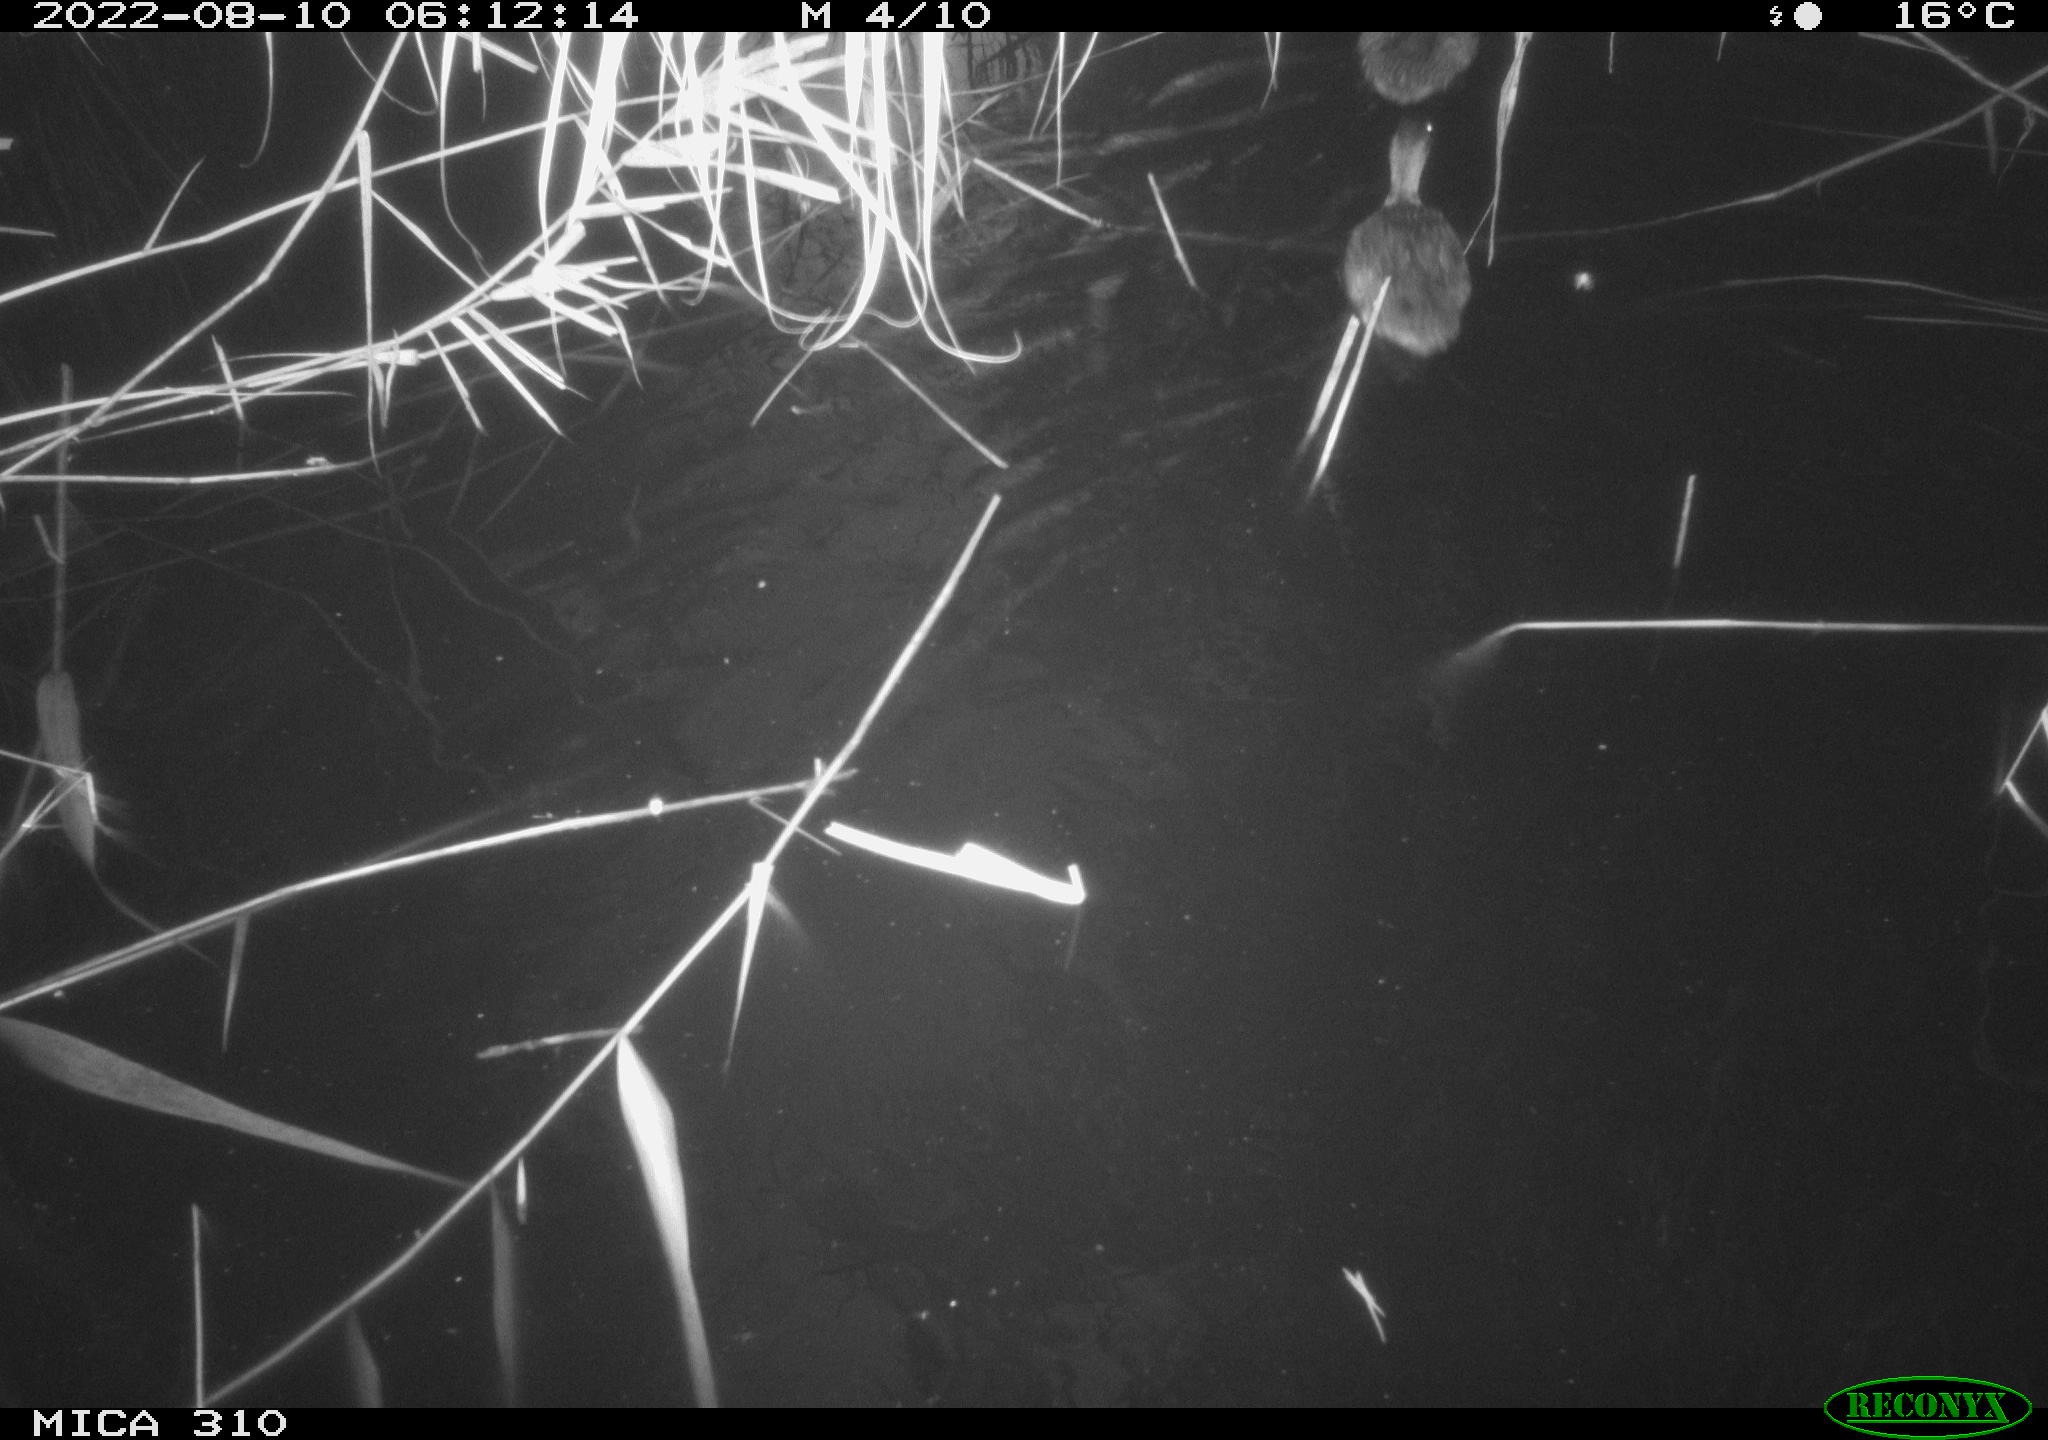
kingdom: Animalia
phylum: Chordata
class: Aves
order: Anseriformes
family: Anatidae
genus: Anas
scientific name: Anas platyrhynchos
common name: Mallard
